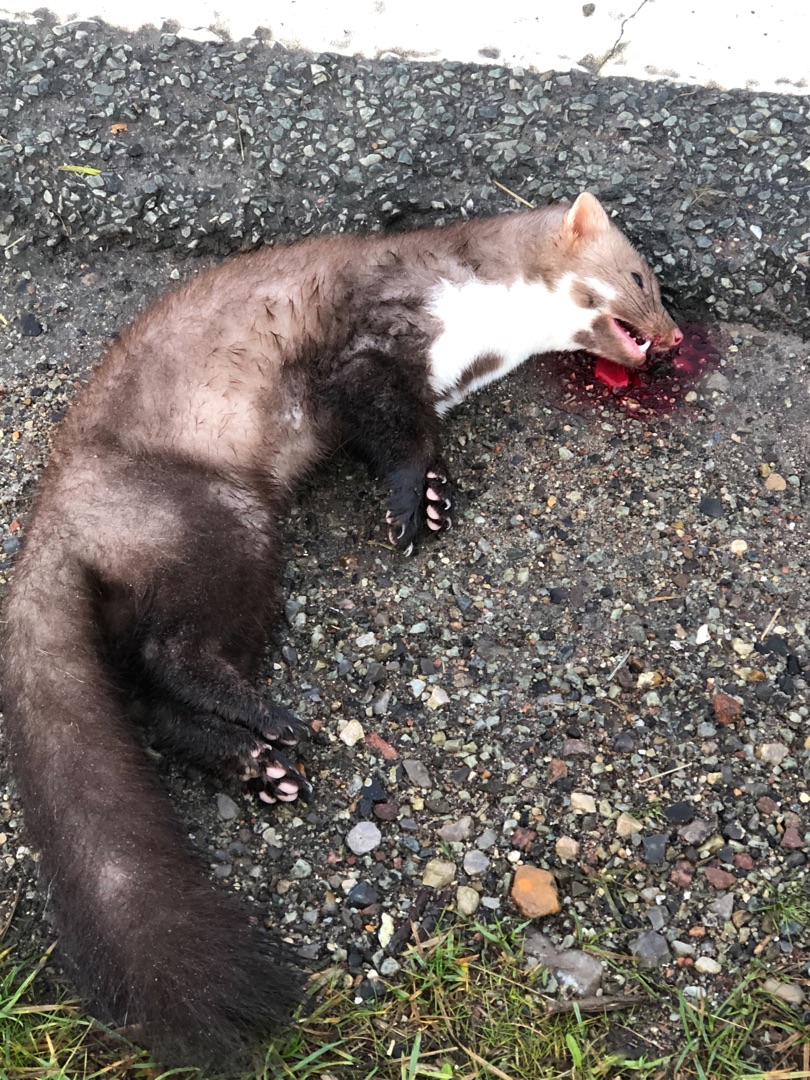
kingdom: Animalia
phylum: Chordata
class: Mammalia
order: Carnivora
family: Mustelidae
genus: Martes
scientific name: Martes foina
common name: Husmår
